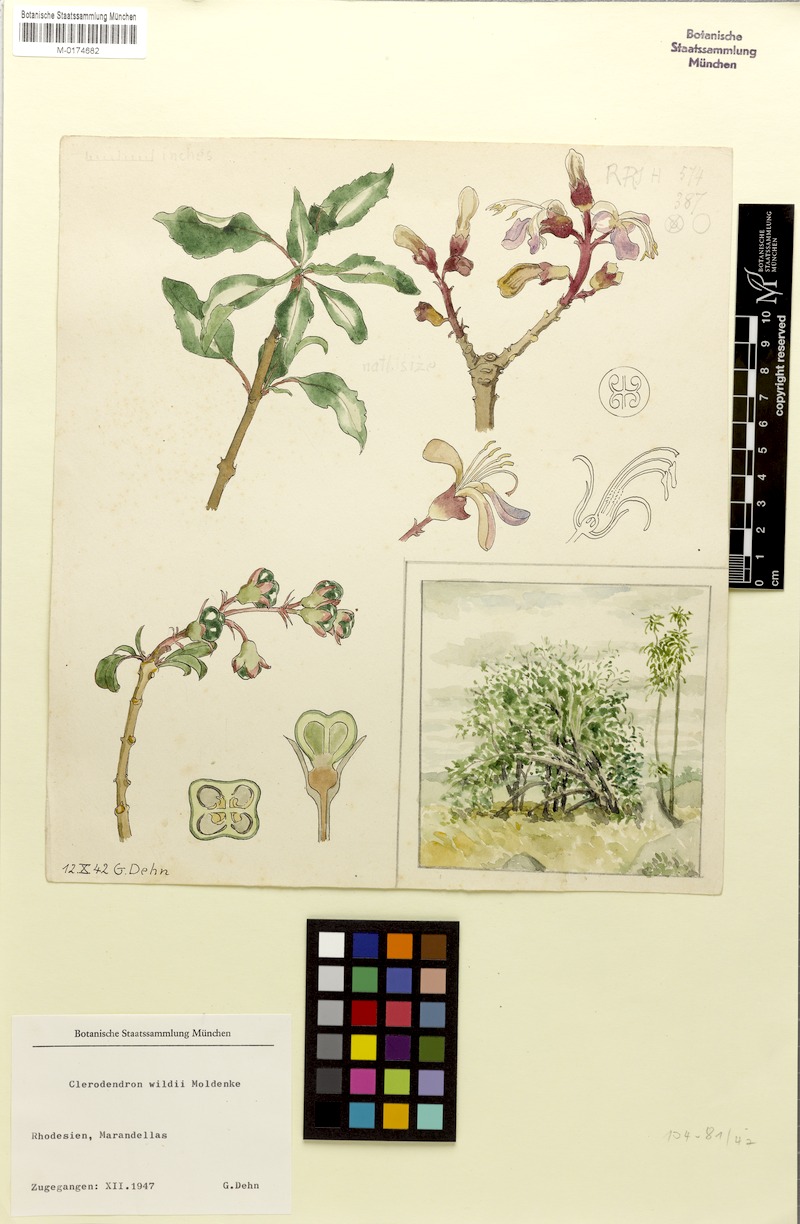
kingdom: Plantae
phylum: Tracheophyta
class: Magnoliopsida
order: Lamiales
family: Lamiaceae
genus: Rotheca
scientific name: Rotheca wildii
